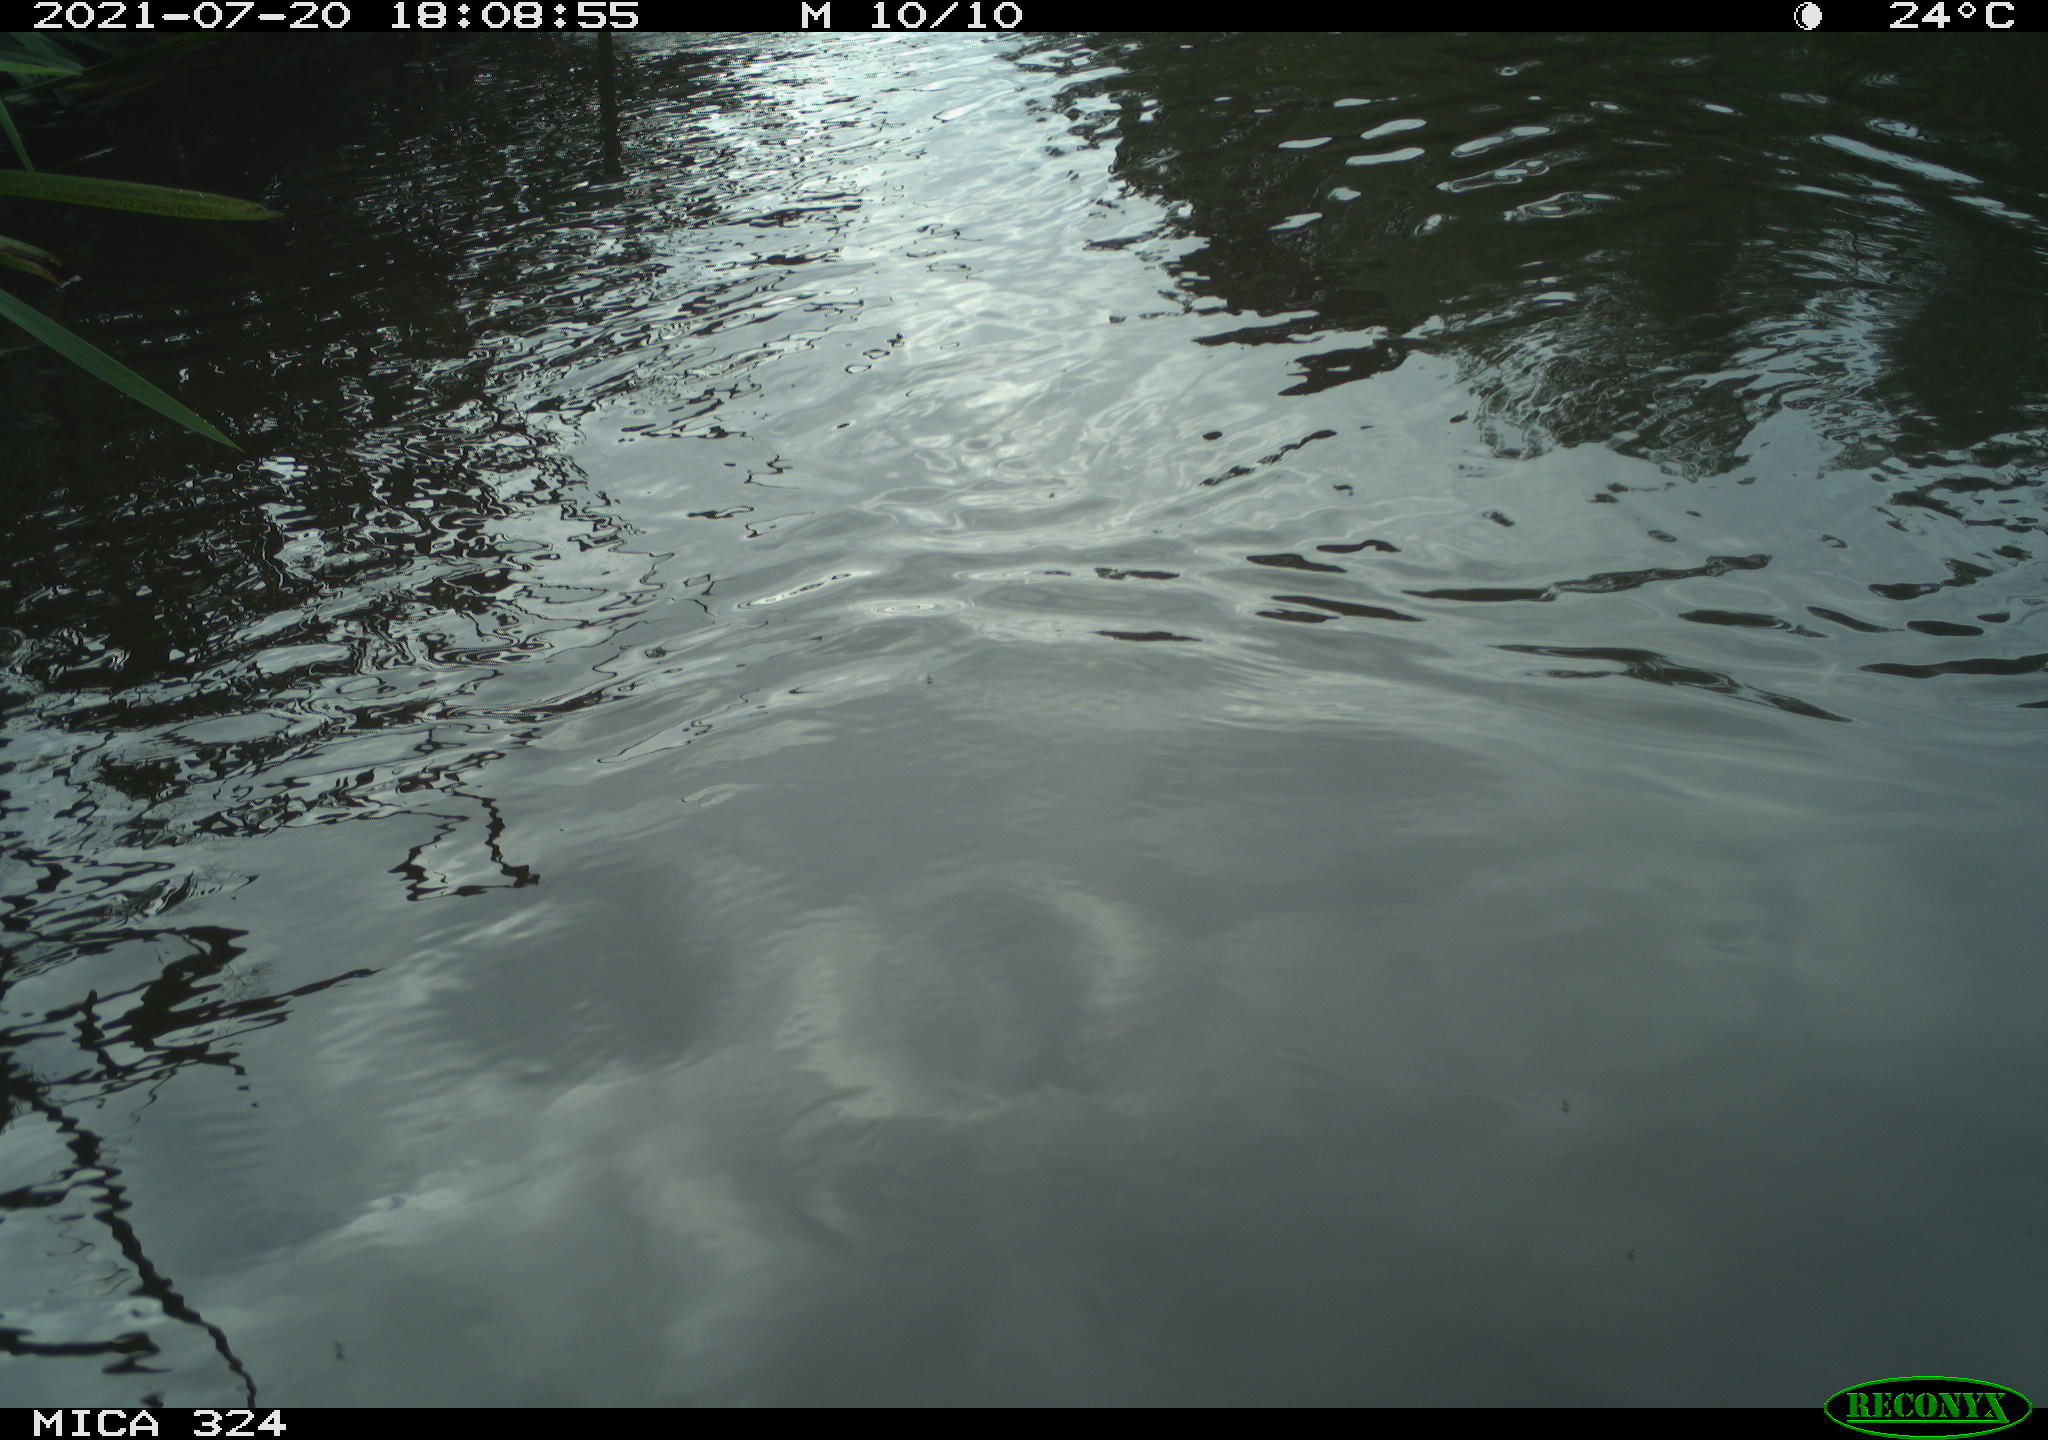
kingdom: Animalia
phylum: Chordata
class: Aves
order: Gruiformes
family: Rallidae
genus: Gallinula
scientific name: Gallinula chloropus
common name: Common moorhen
